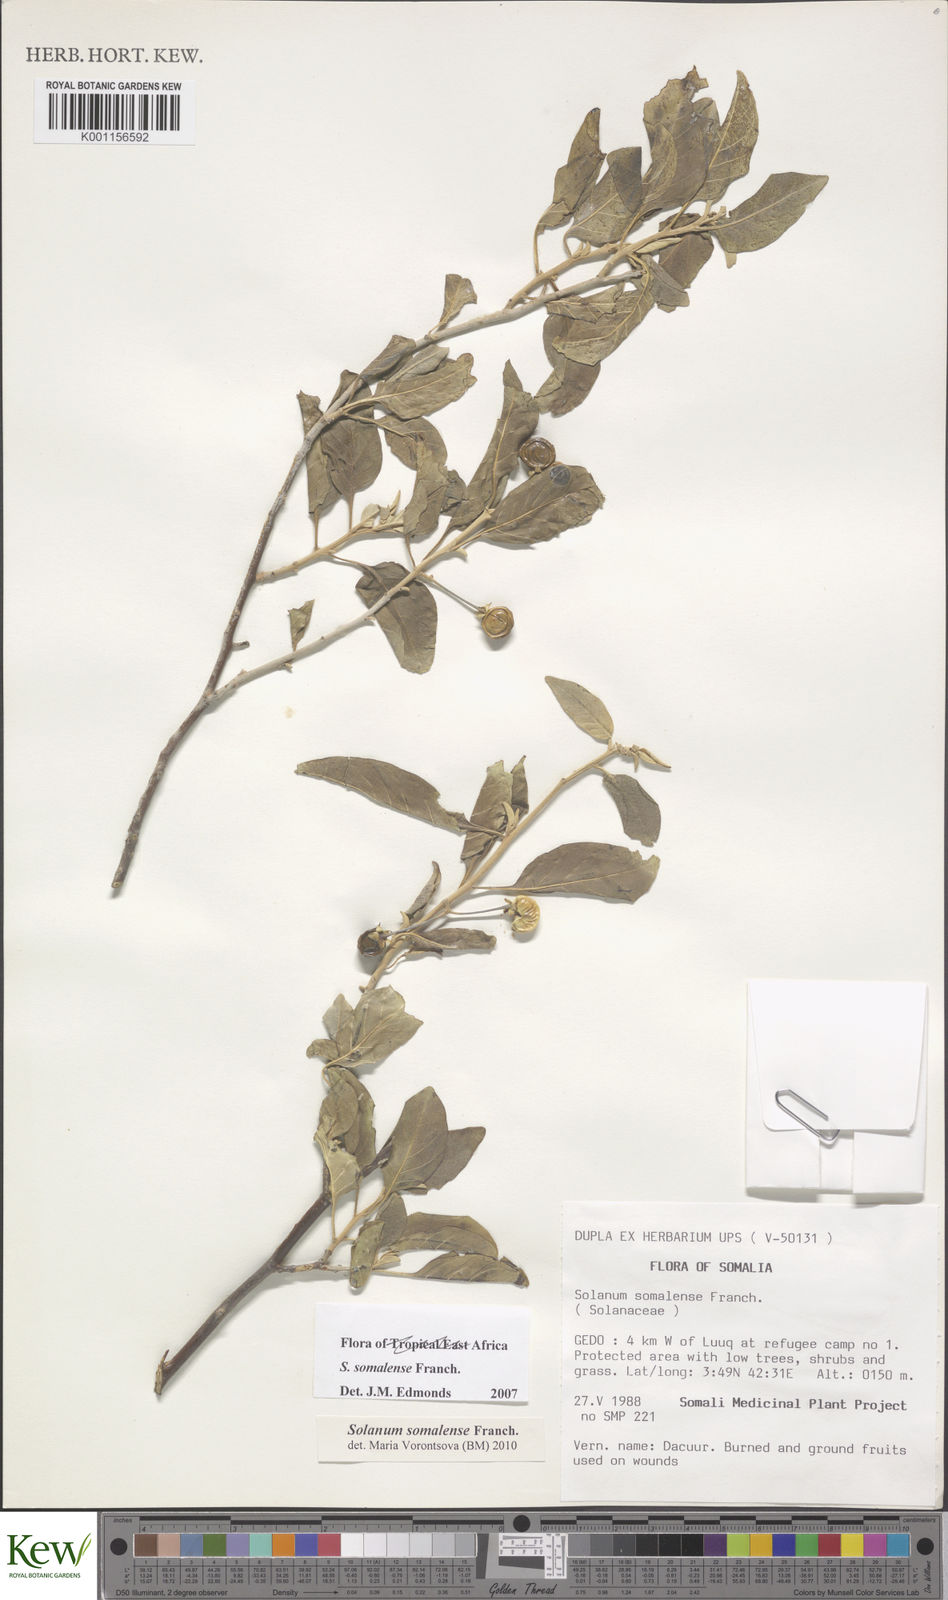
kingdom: Plantae
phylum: Tracheophyta
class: Magnoliopsida
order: Solanales
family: Solanaceae
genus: Solanum
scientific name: Solanum somalense
